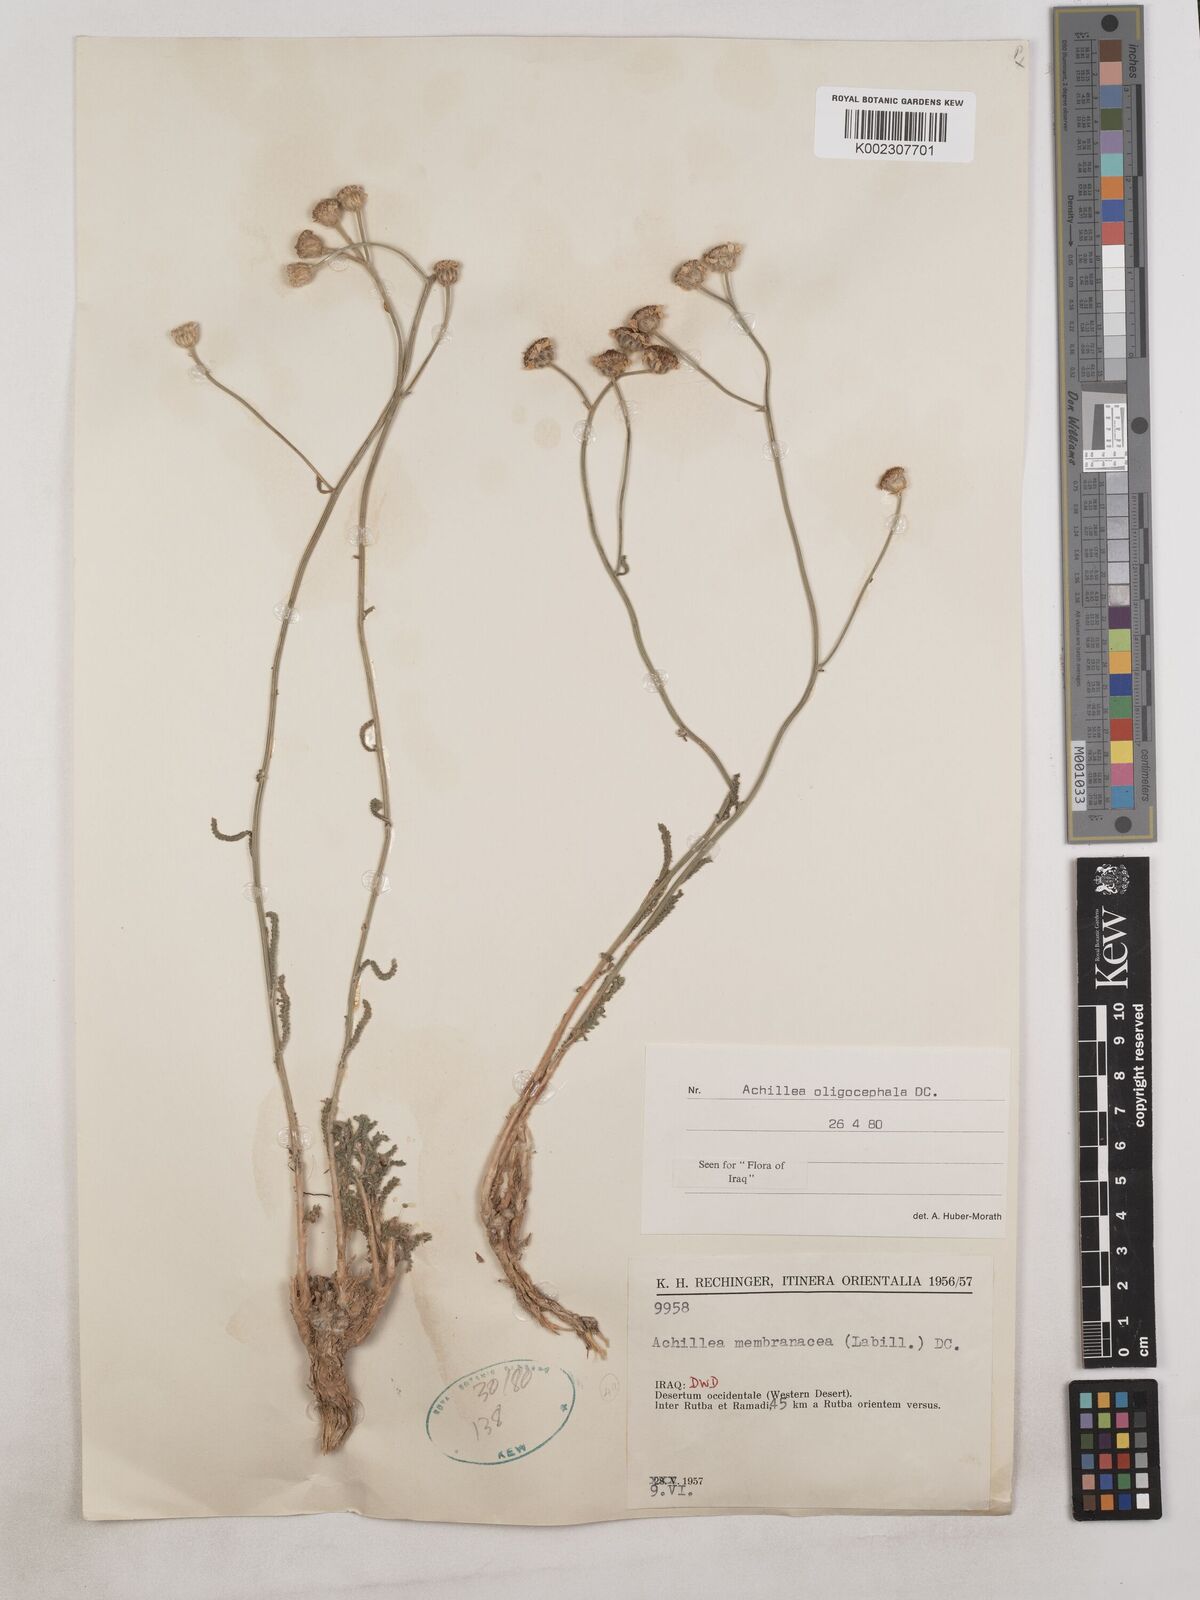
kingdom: Plantae
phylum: Tracheophyta
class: Magnoliopsida
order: Asterales
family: Asteraceae
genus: Achillea
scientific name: Achillea oligocephala
